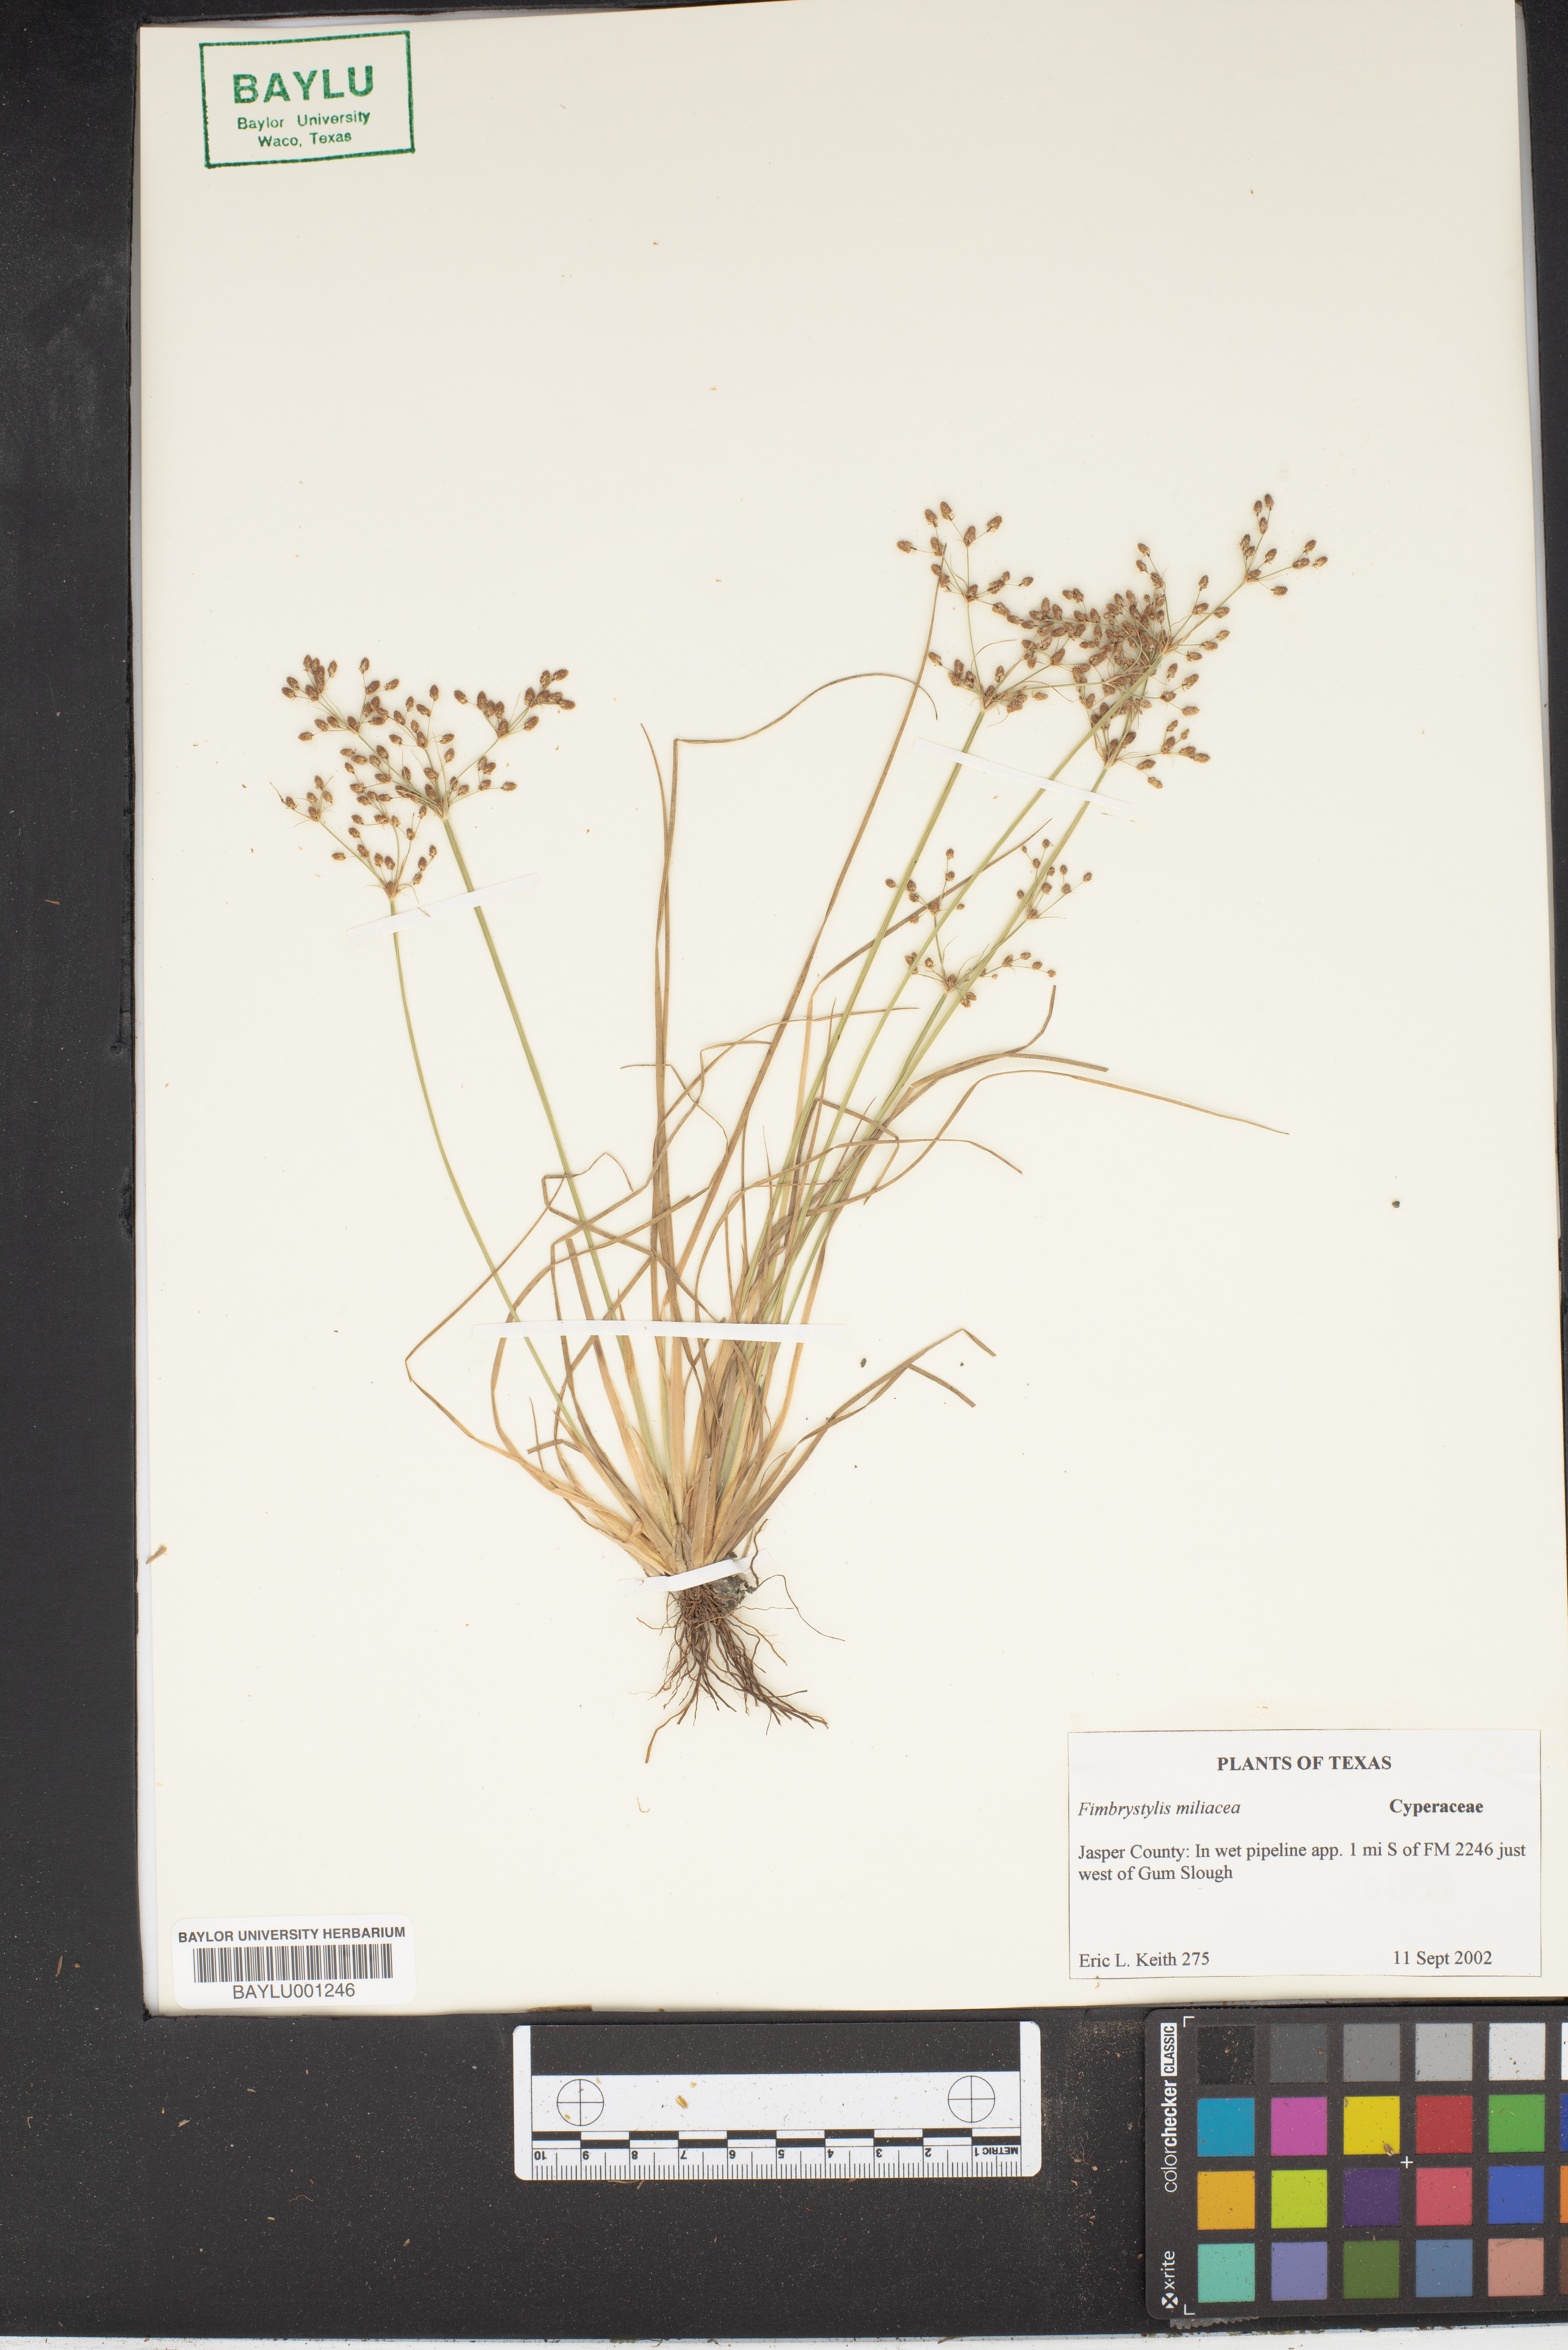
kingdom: Plantae
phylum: Tracheophyta
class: Liliopsida
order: Poales
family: Cyperaceae
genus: Fimbristylis
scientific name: Fimbristylis quinquangularis
